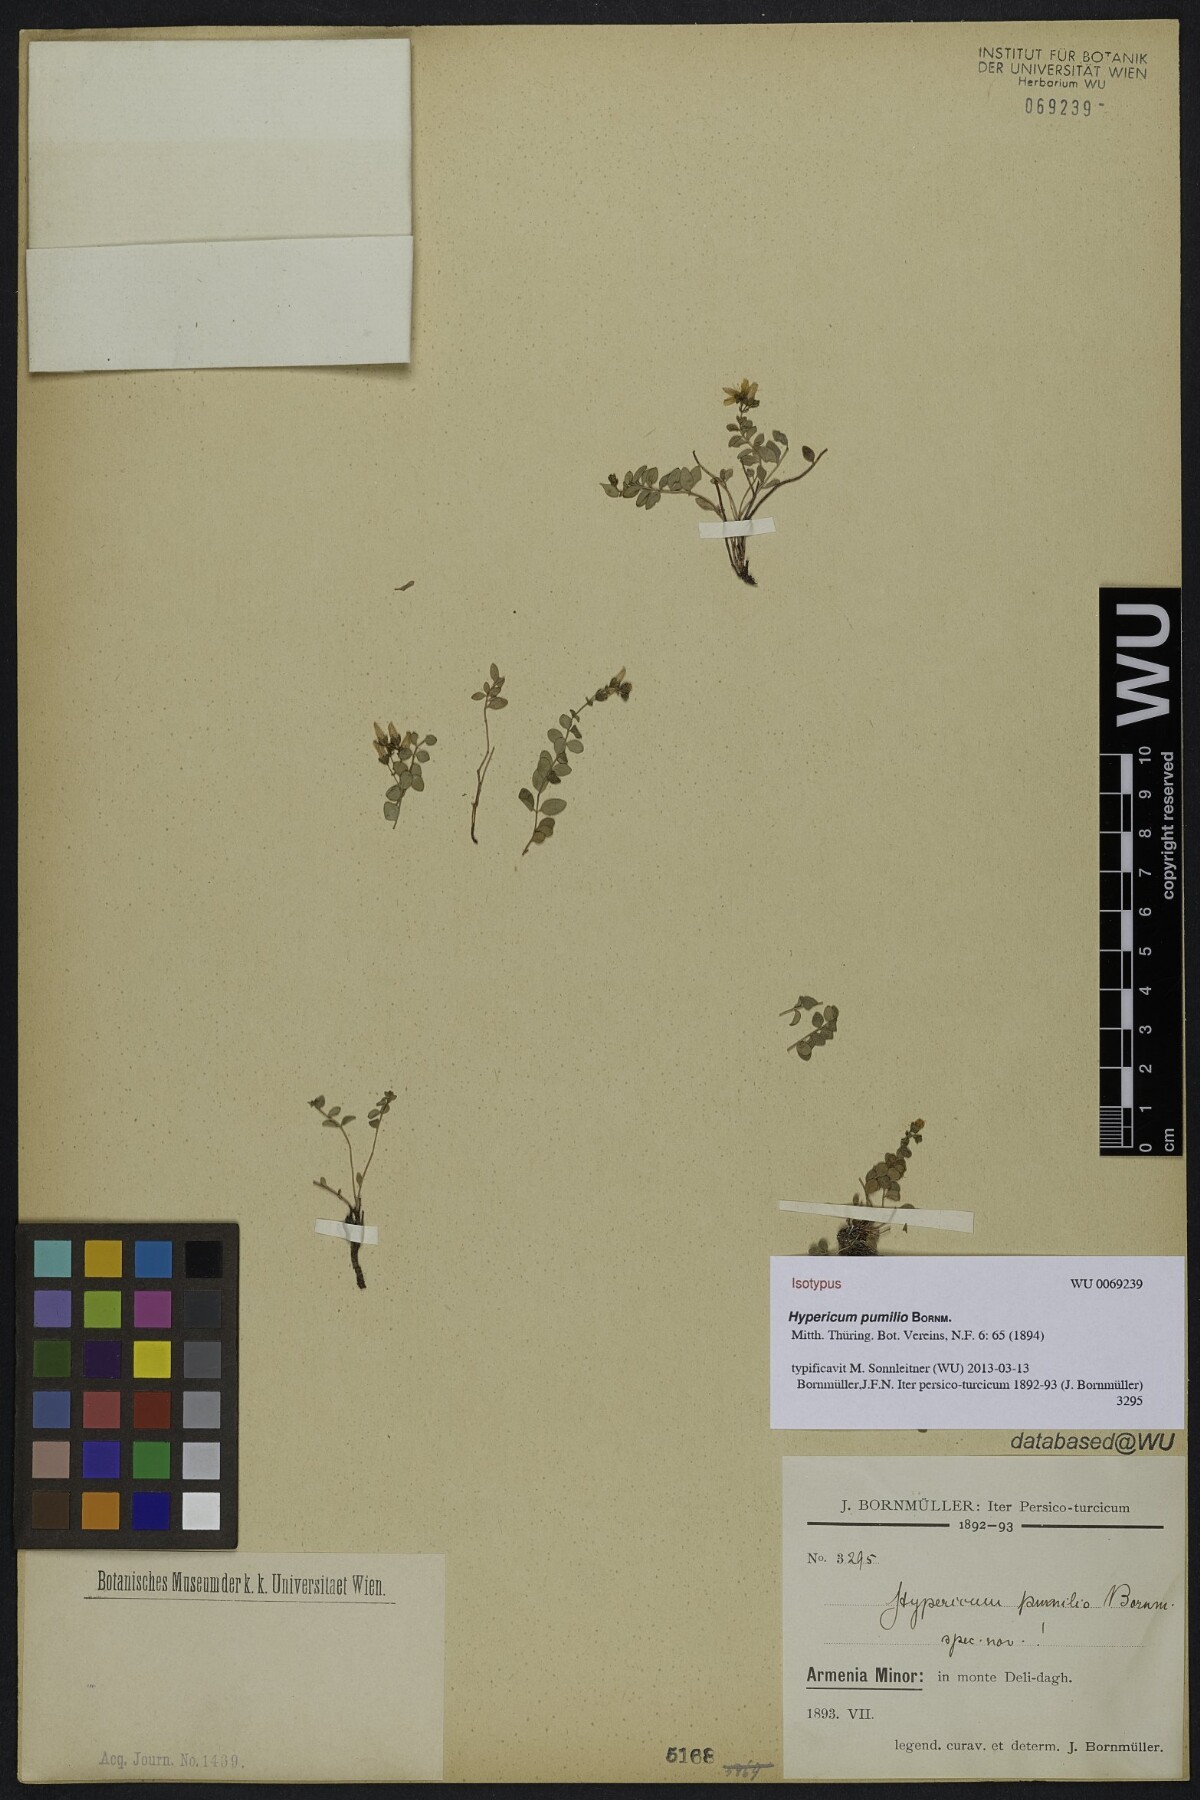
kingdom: Plantae
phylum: Tracheophyta
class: Magnoliopsida
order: Malpighiales
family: Hypericaceae
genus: Hypericum
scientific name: Hypericum pumilio
